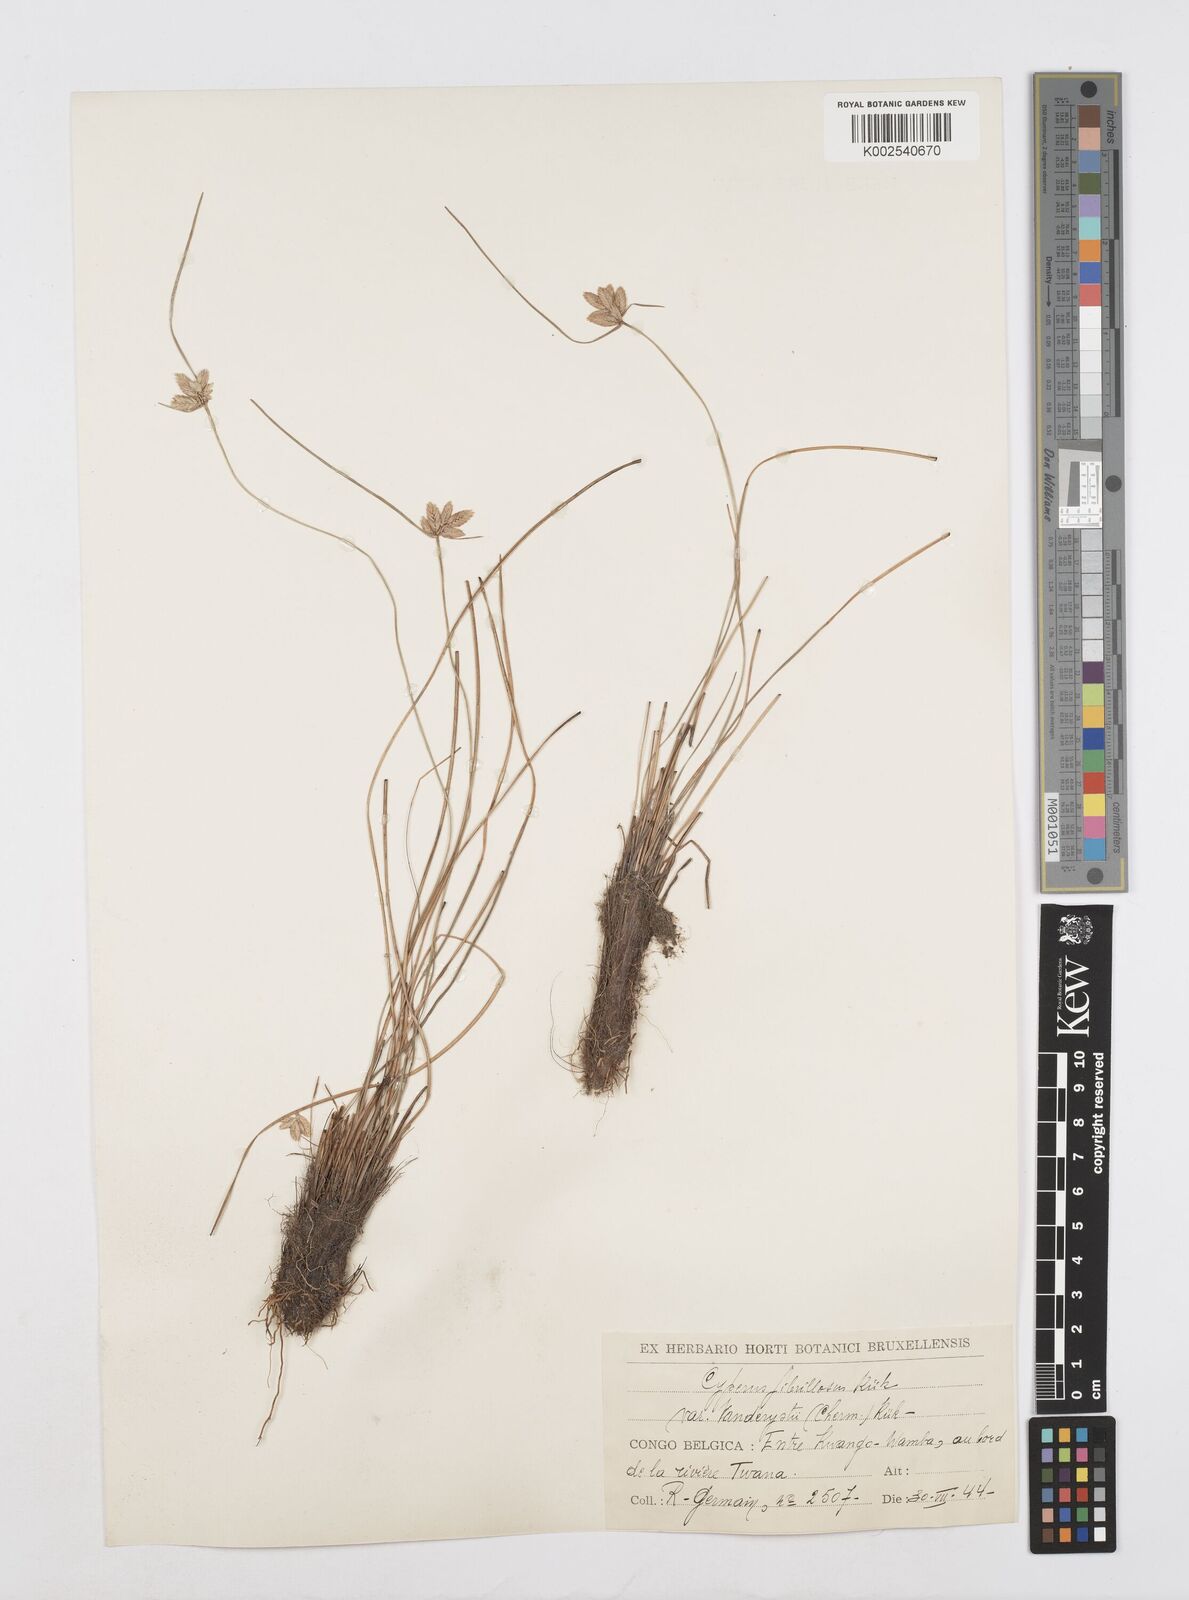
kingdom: Plantae
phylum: Tracheophyta
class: Liliopsida
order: Poales
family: Cyperaceae
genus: Cyperus
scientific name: Cyperus
